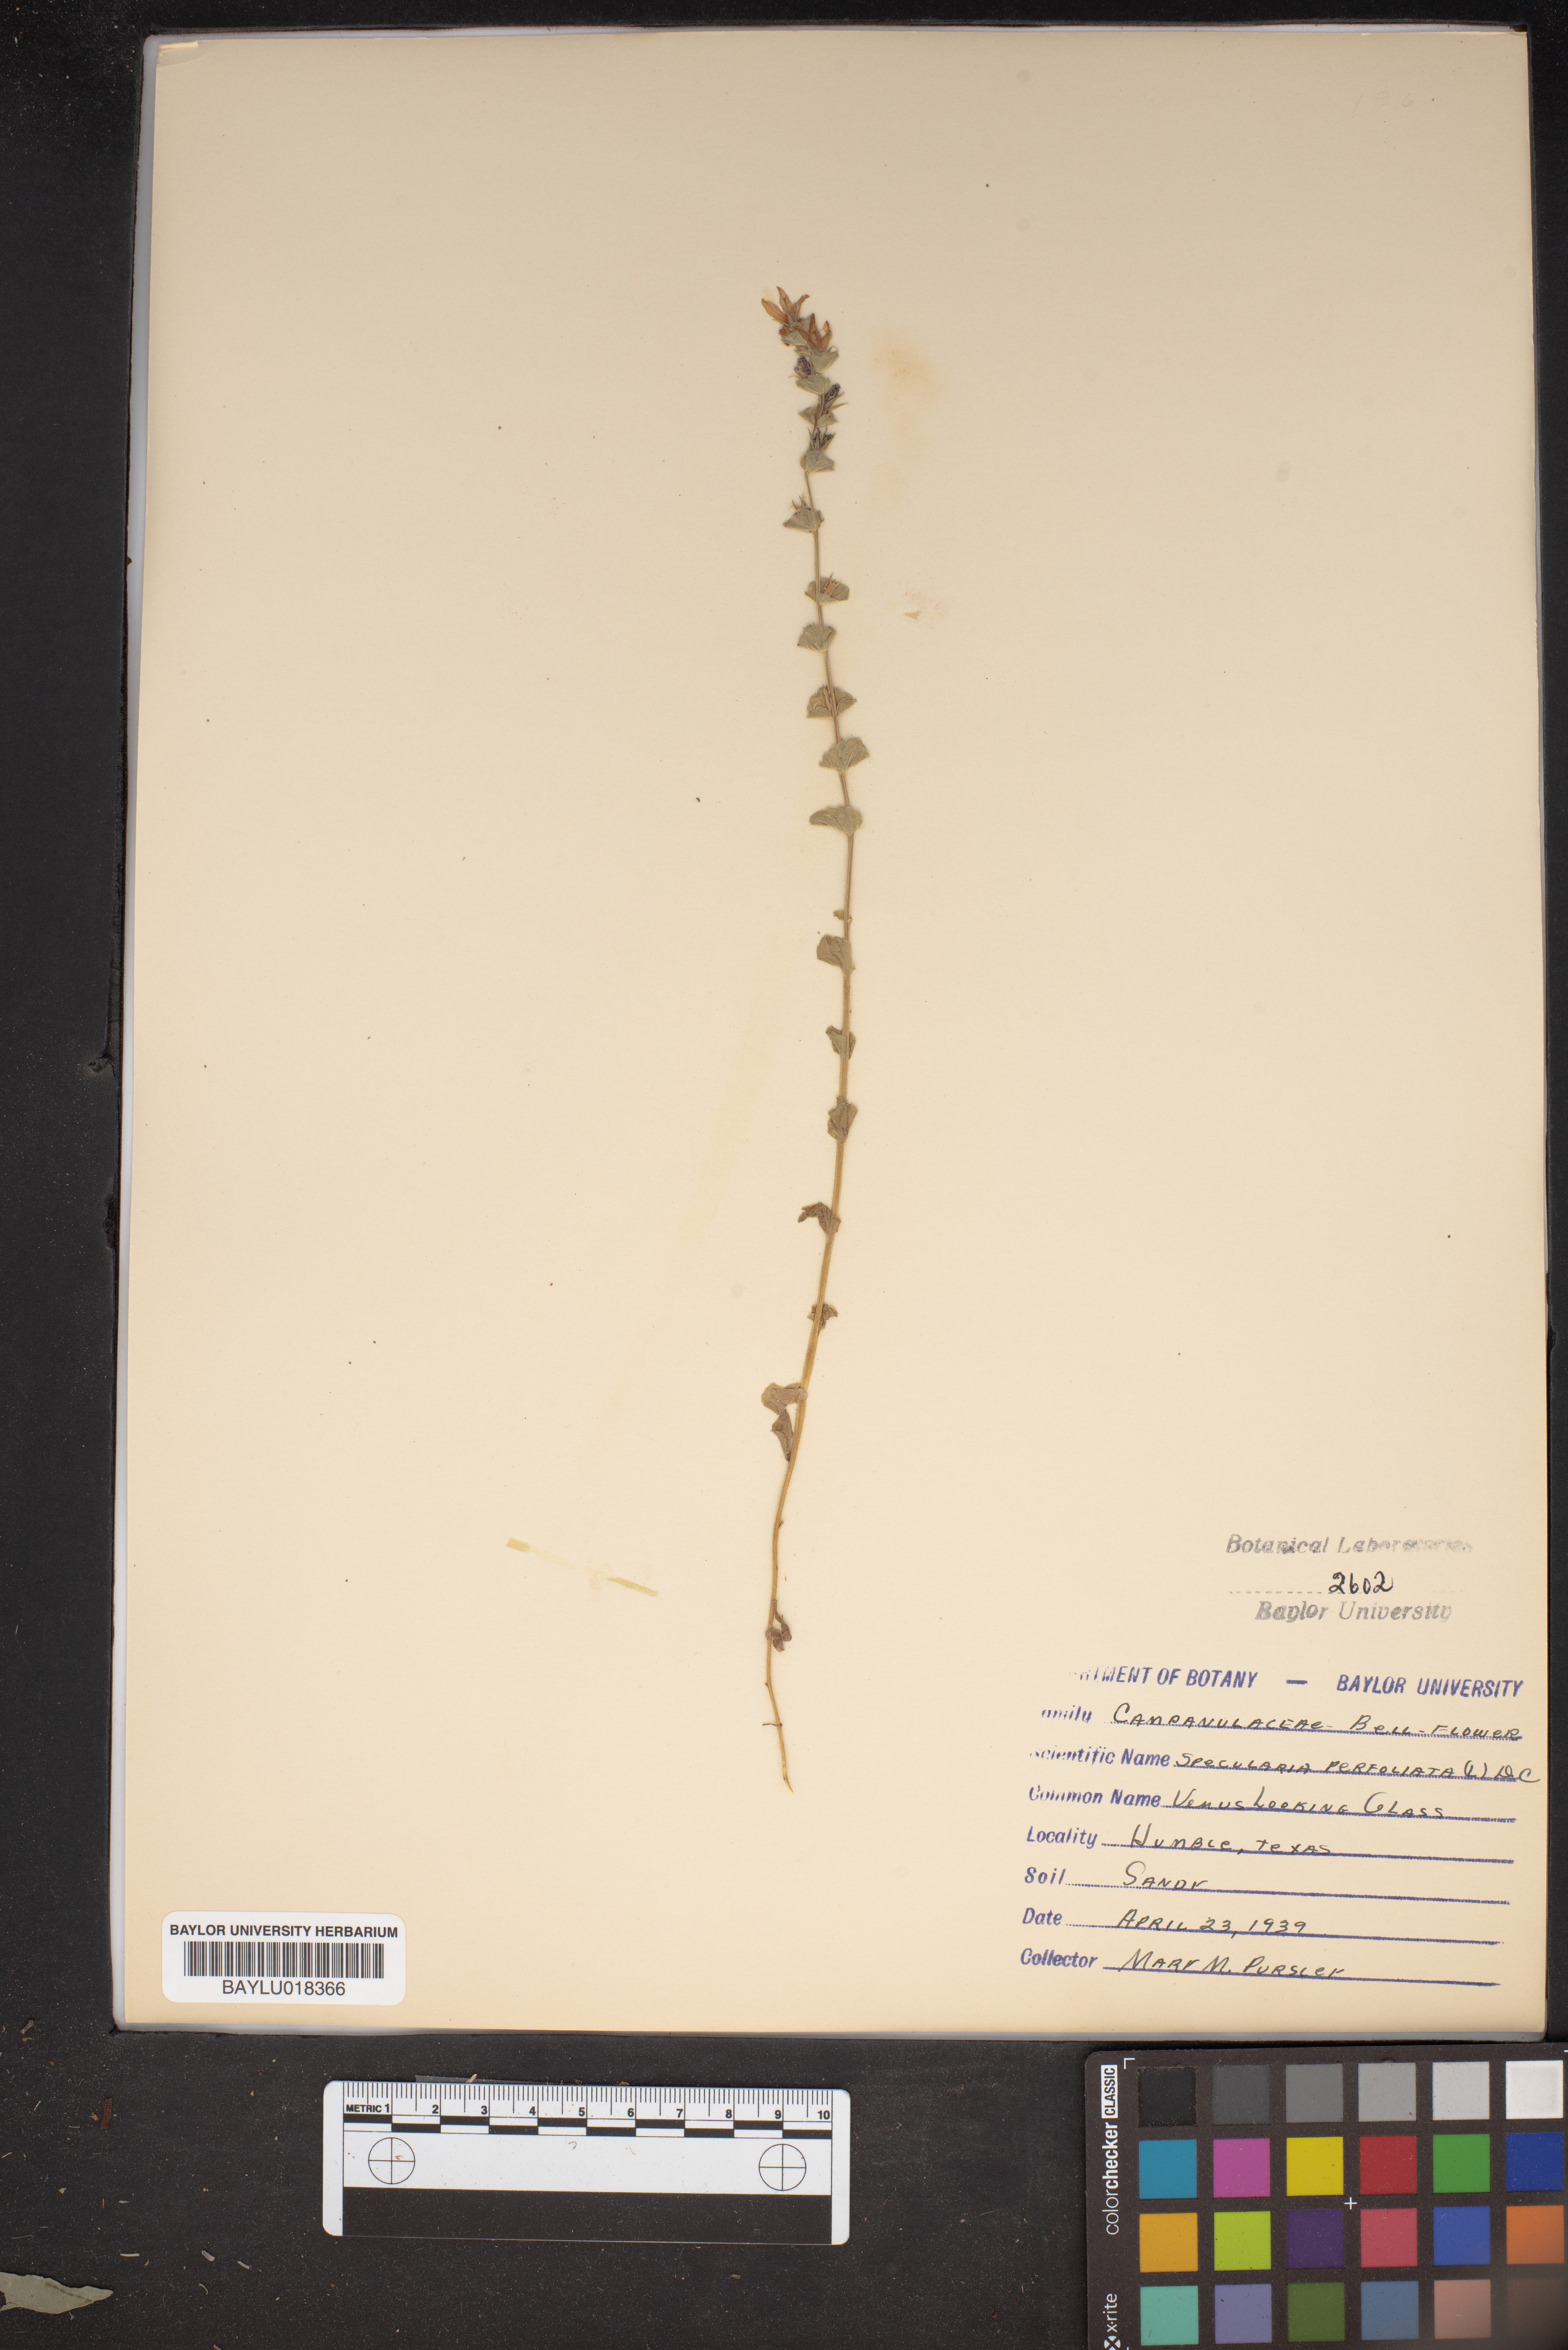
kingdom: Plantae
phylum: Tracheophyta
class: Magnoliopsida
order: Asterales
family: Campanulaceae
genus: Triodanis
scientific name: Triodanis perfoliata
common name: Clasping venus' looking-glass
